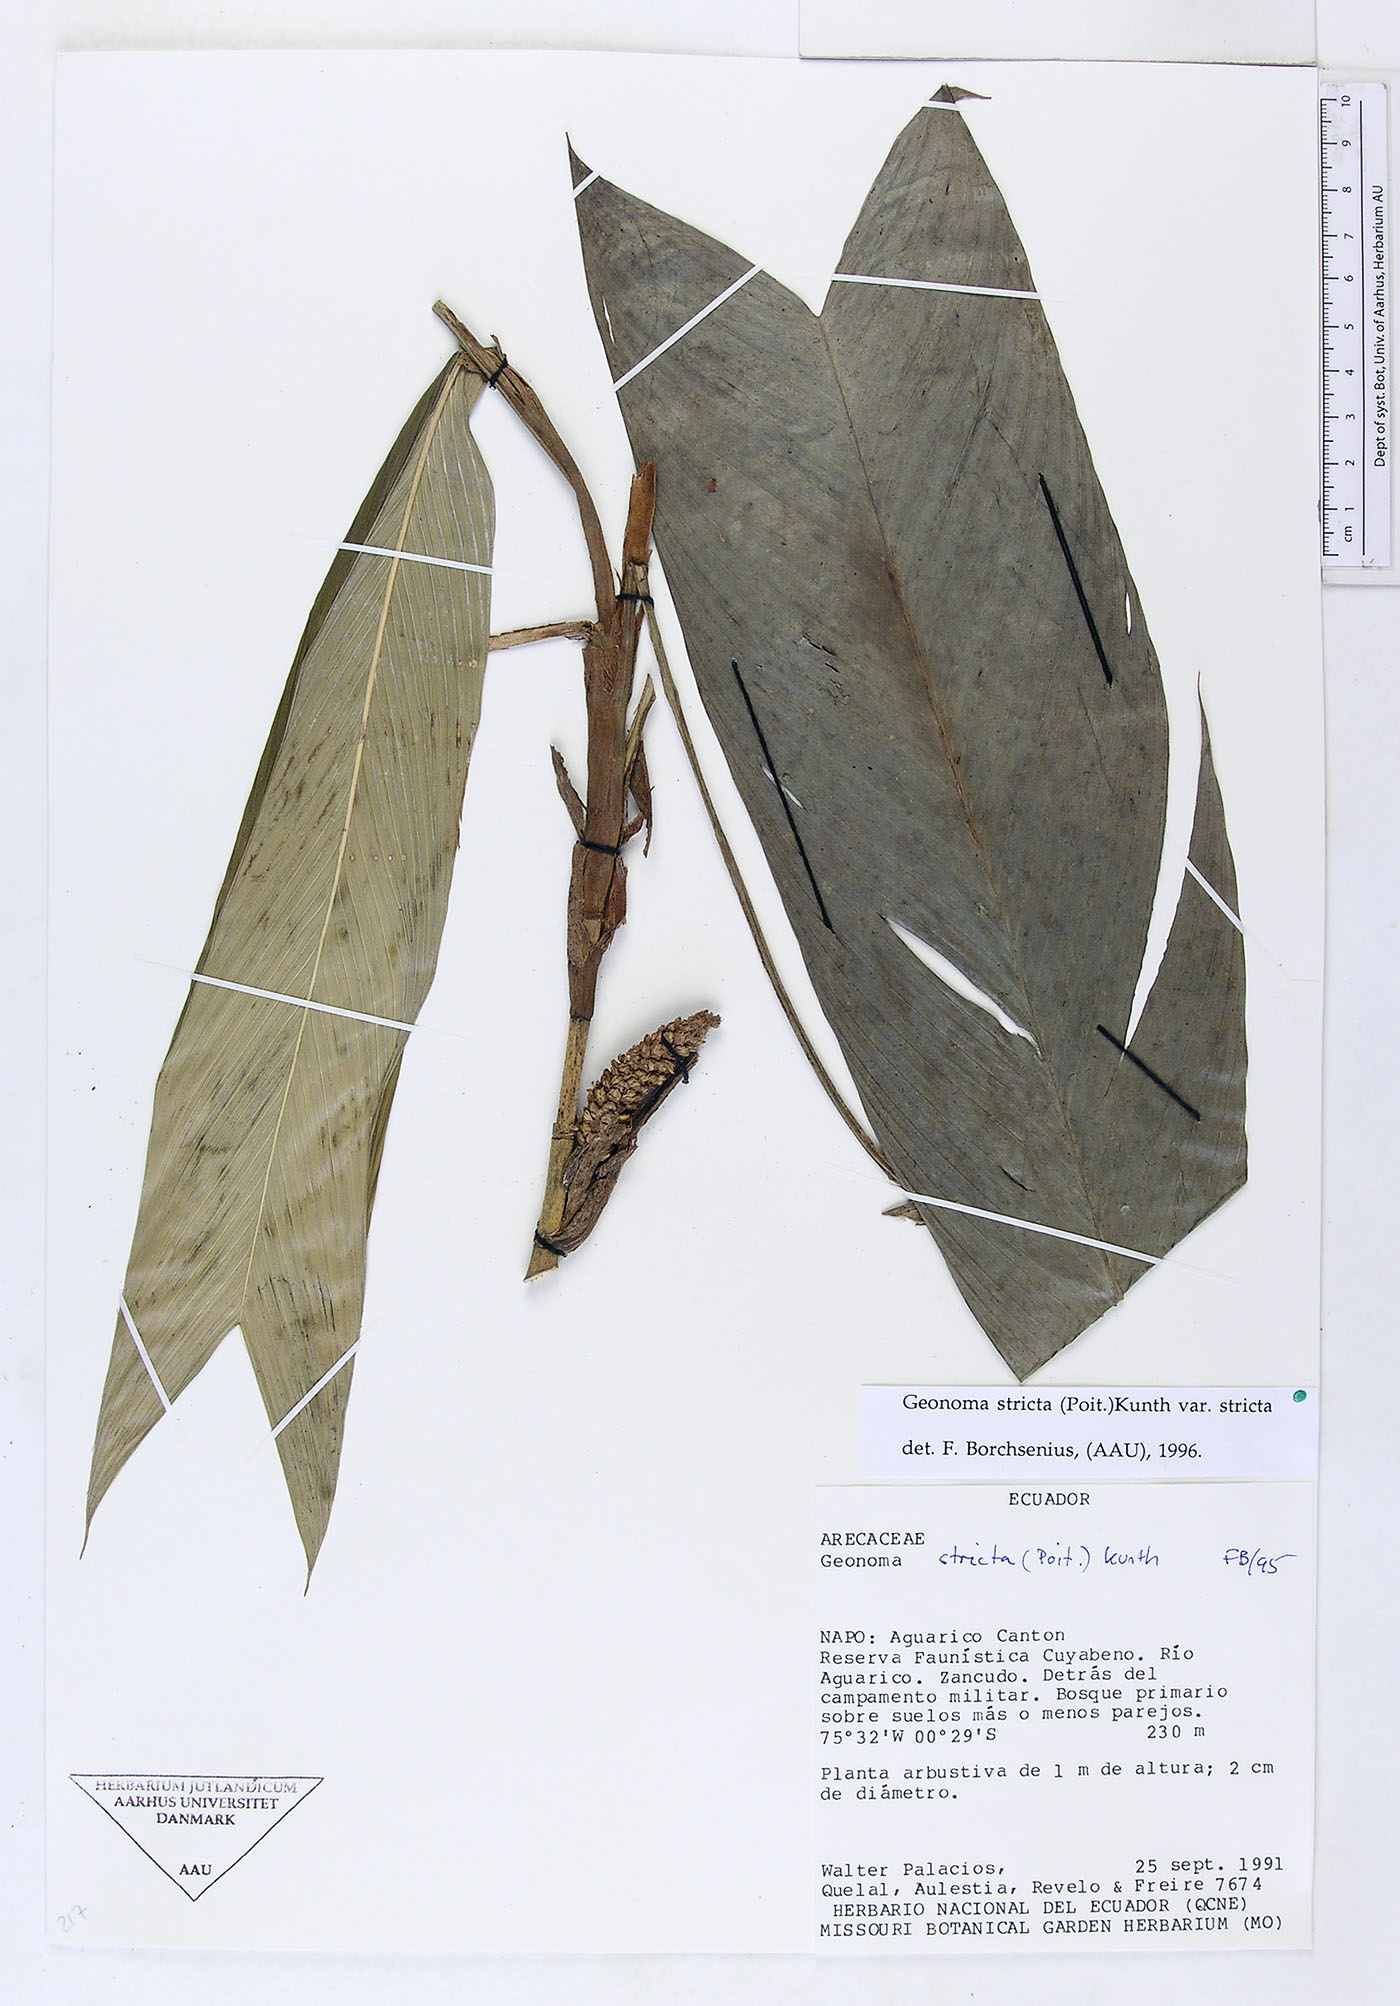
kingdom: Plantae
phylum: Tracheophyta
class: Liliopsida
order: Arecales
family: Arecaceae
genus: Geonoma
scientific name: Geonoma stricta
